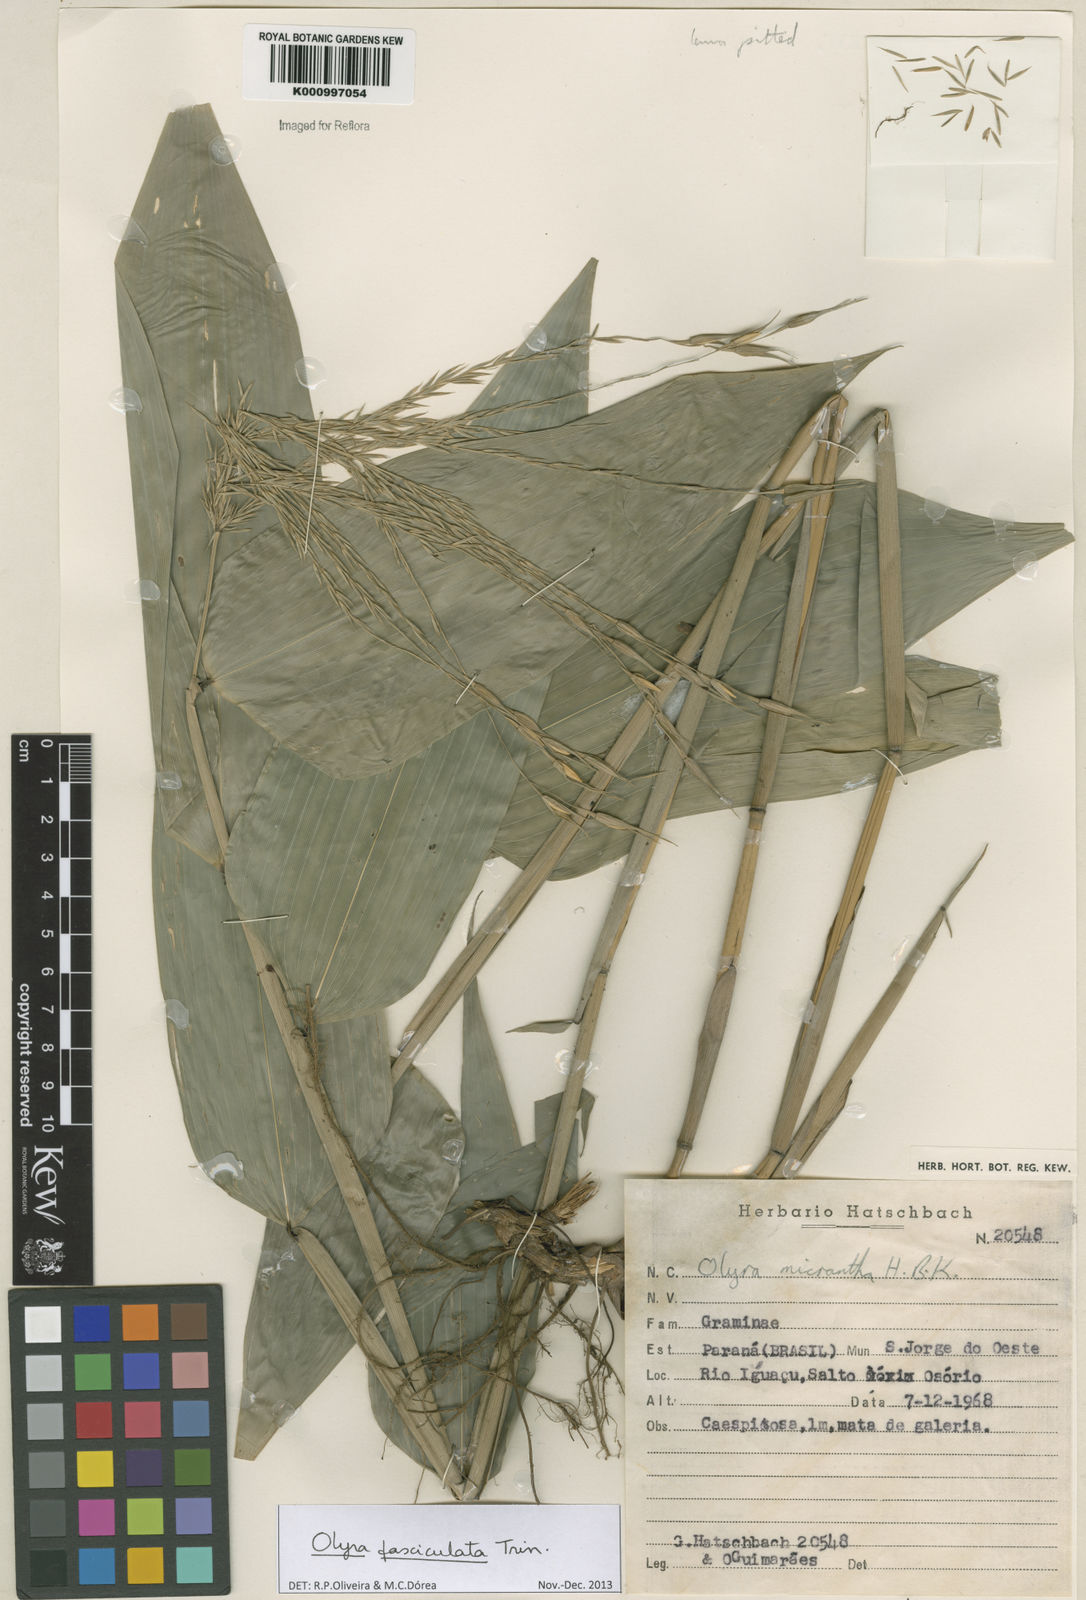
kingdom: Plantae
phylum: Tracheophyta
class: Liliopsida
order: Poales
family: Poaceae
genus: Olyra
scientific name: Olyra fasciculata
